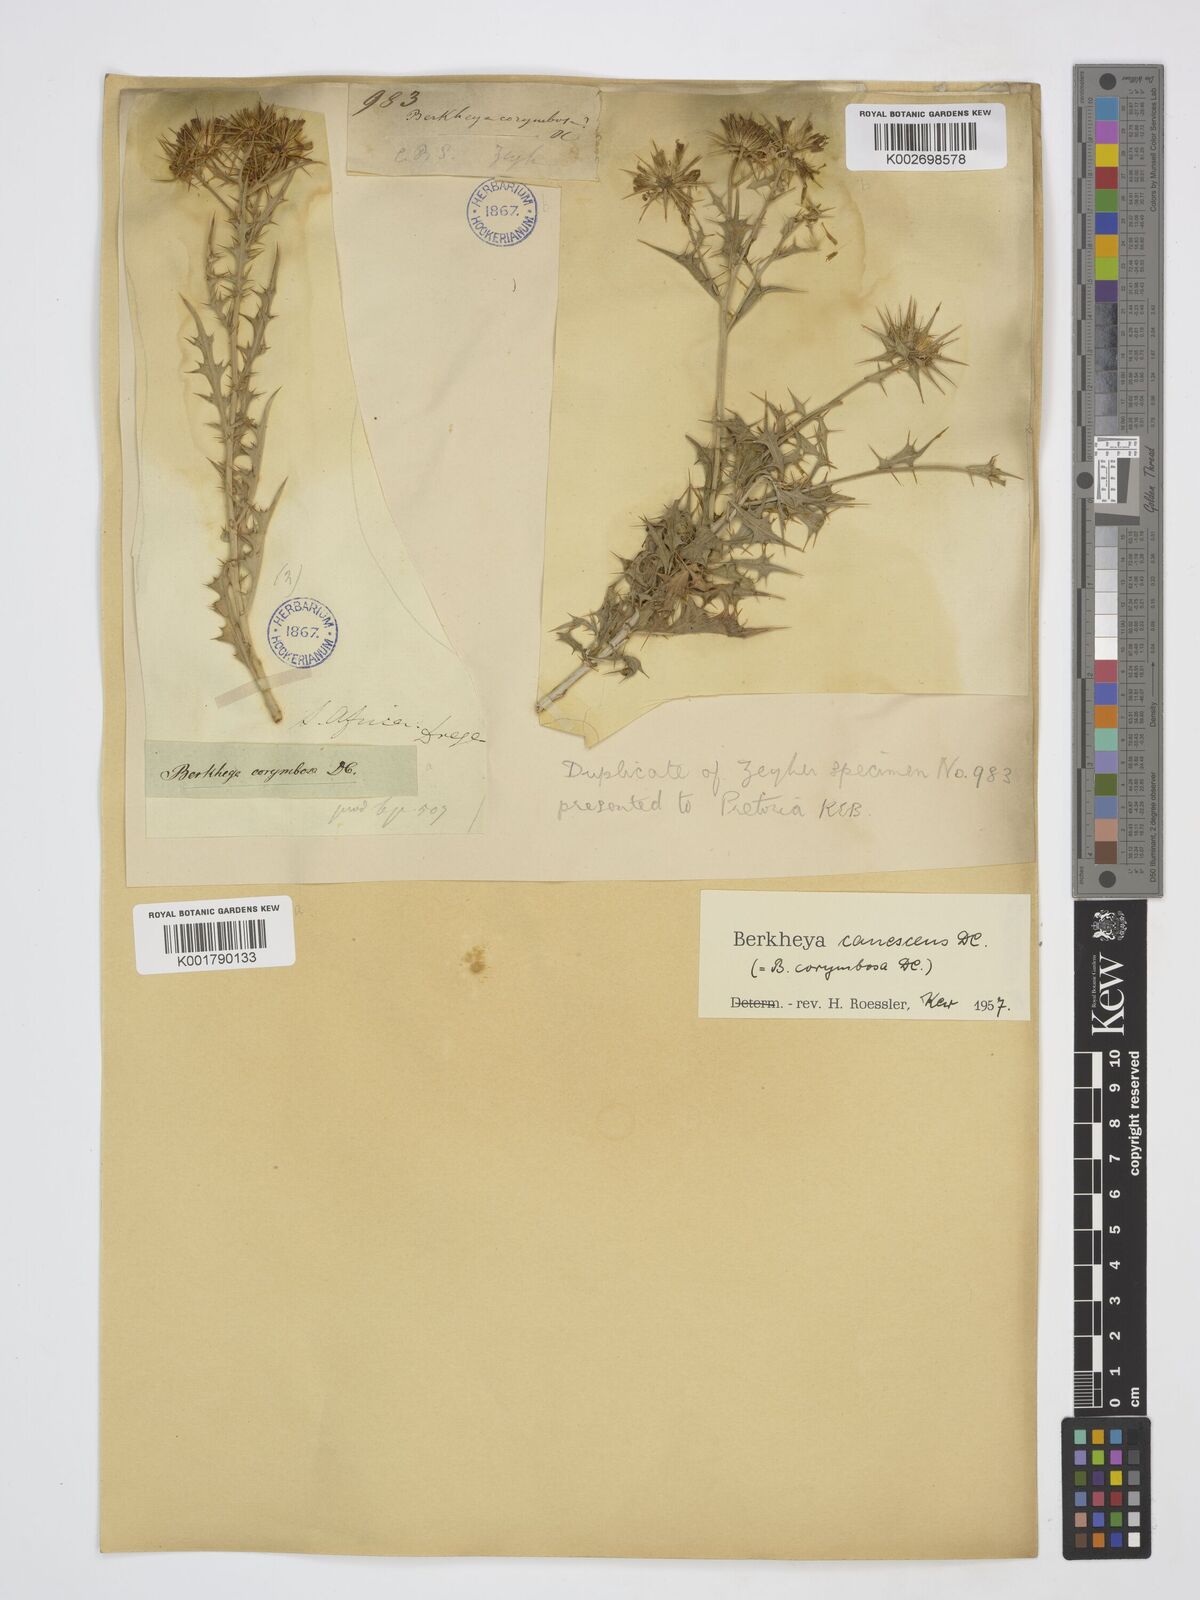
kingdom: Plantae
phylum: Tracheophyta
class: Magnoliopsida
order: Asterales
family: Asteraceae
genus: Berkheya
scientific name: Berkheya canescens
